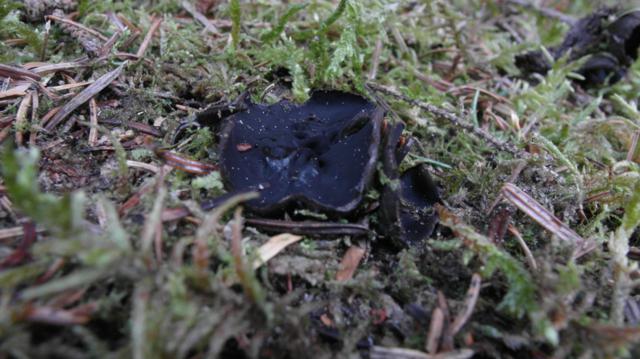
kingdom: Fungi
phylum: Ascomycota
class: Pezizomycetes
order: Pezizales
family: Sarcosomataceae
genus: Pseudoplectania
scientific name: Pseudoplectania nigrella
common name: almindelig sortbæger
